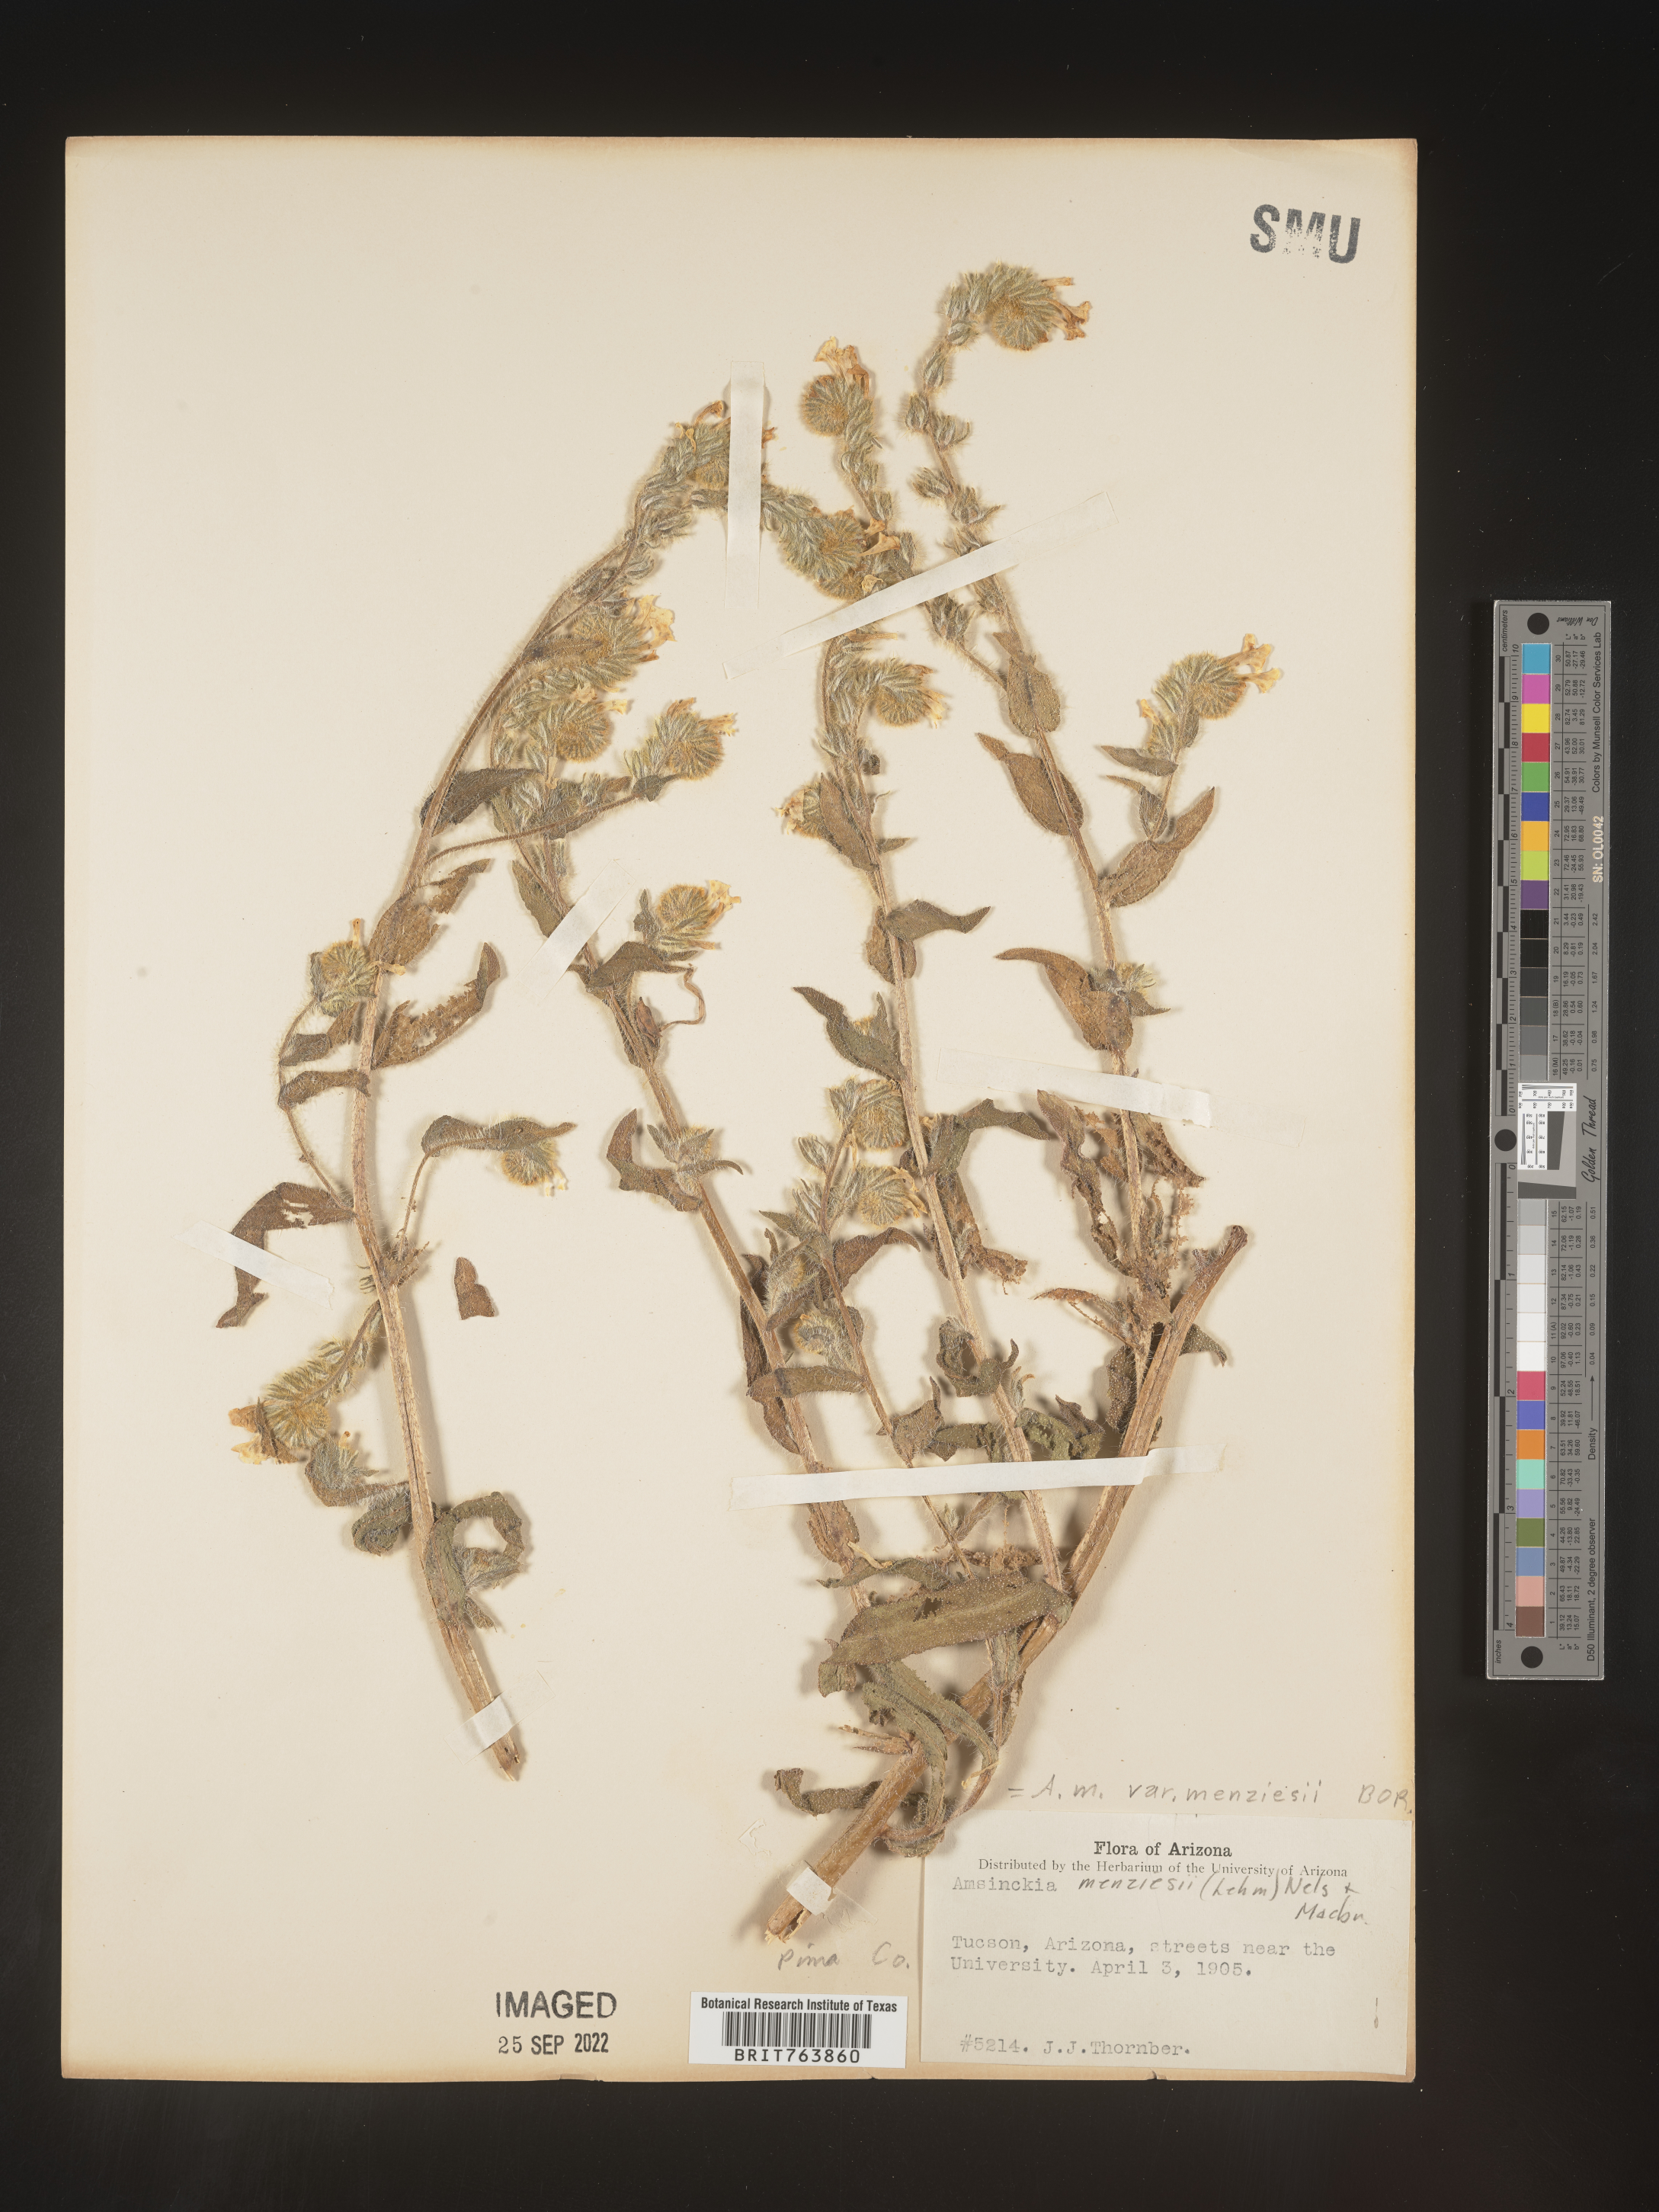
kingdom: Plantae
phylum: Tracheophyta
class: Magnoliopsida
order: Boraginales
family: Boraginaceae
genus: Amsinckia
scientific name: Amsinckia menziesii
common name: Menzies' fiddleneck
